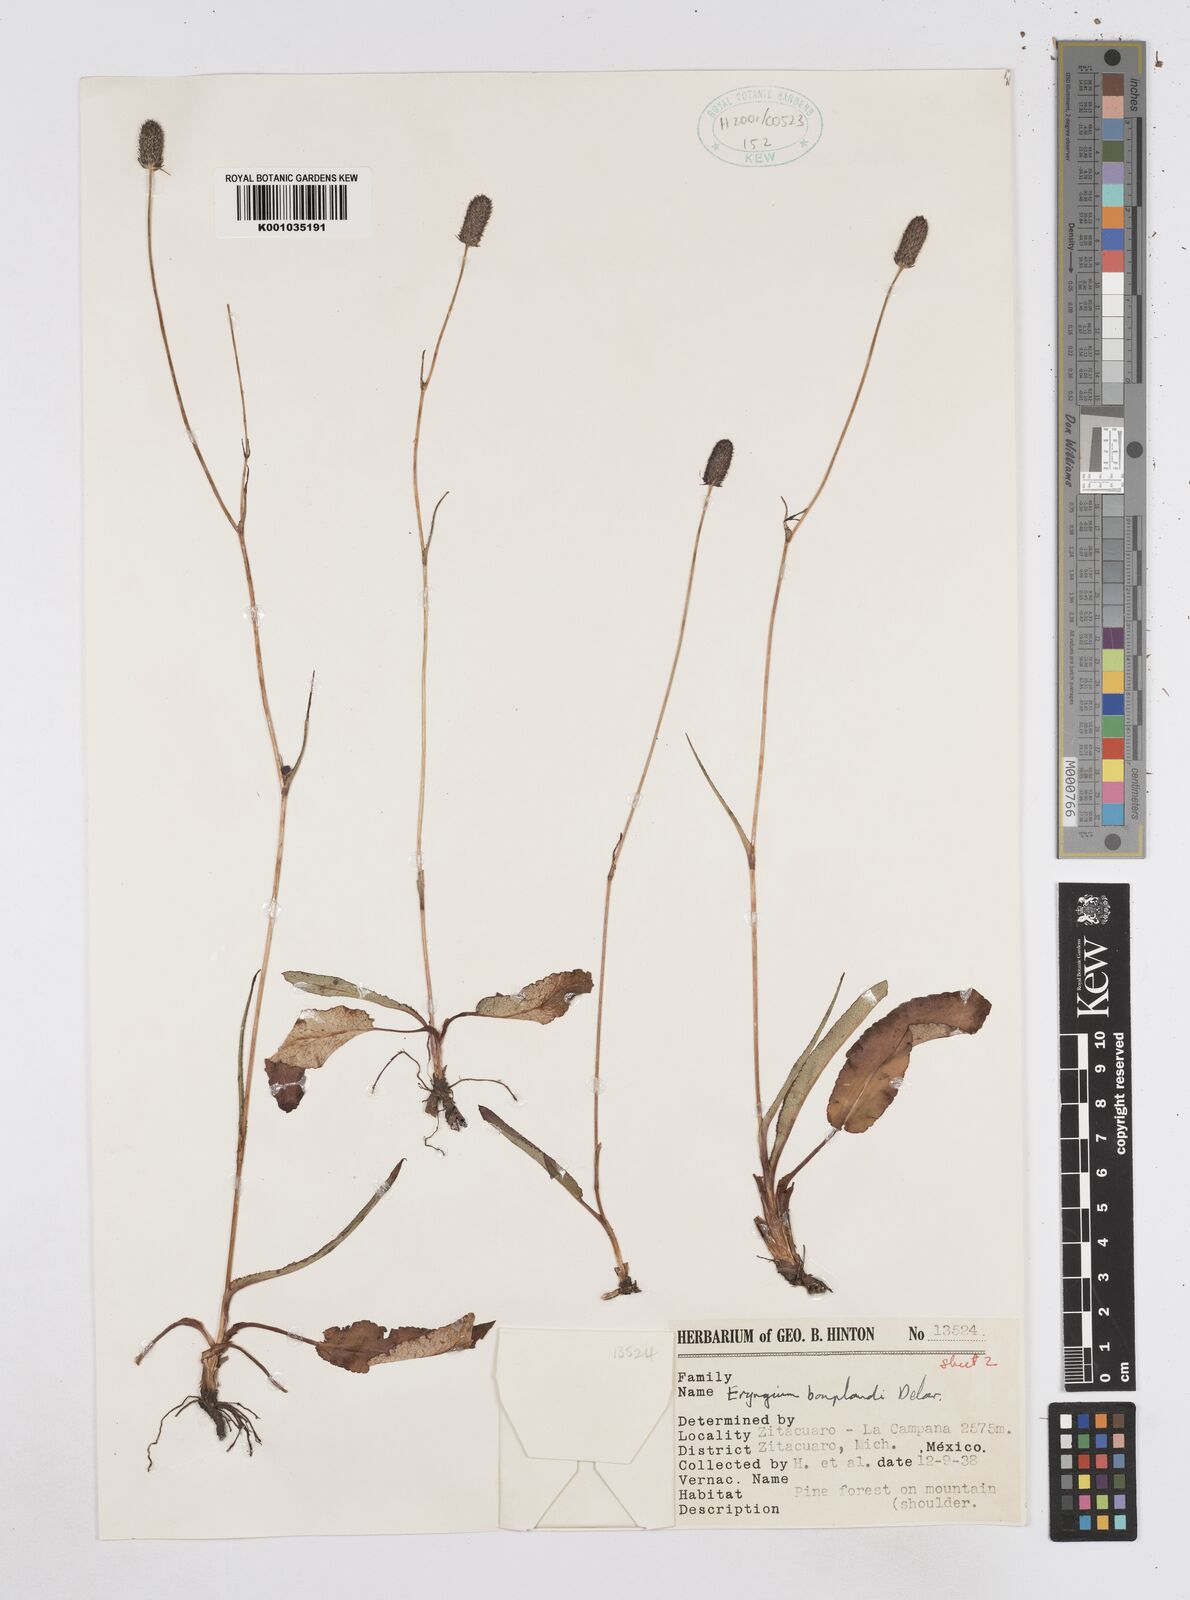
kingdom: Plantae
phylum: Tracheophyta
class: Magnoliopsida
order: Apiales
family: Apiaceae
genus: Eryngium
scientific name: Eryngium bonplandii
